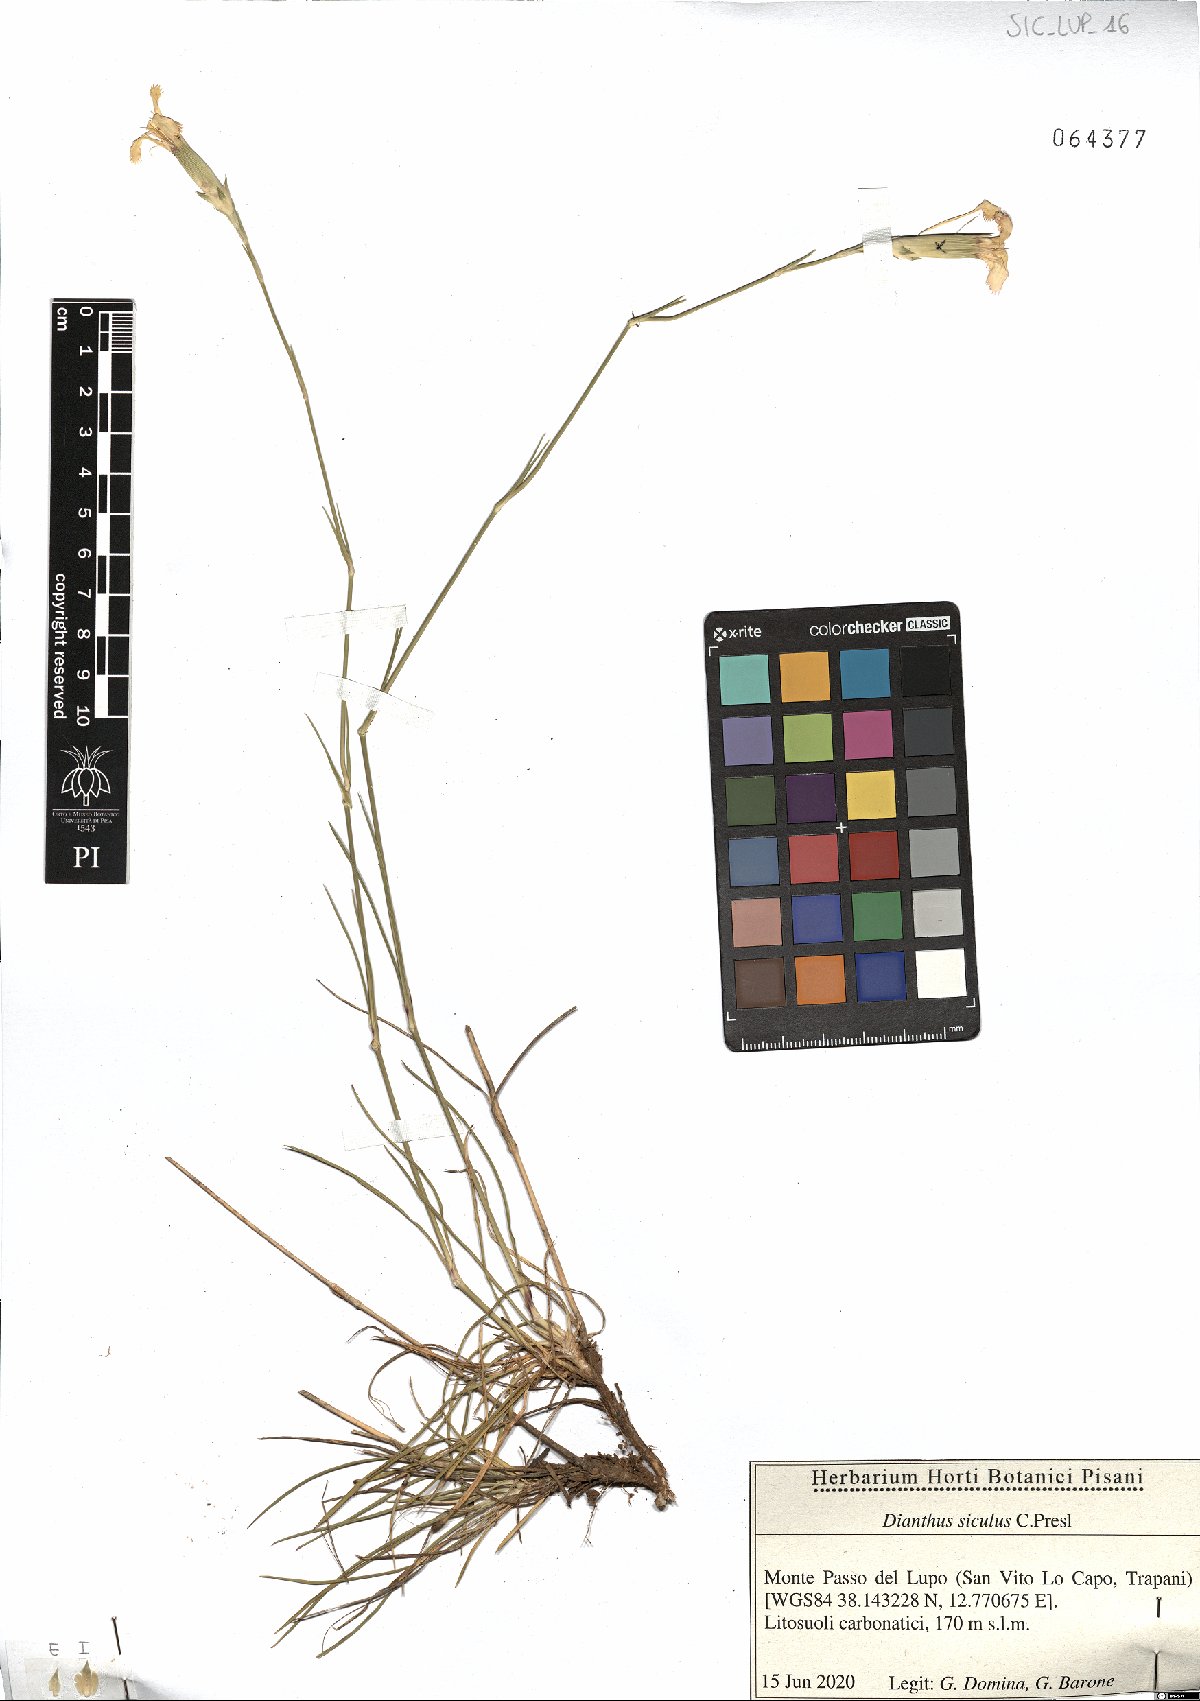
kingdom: Plantae
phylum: Tracheophyta
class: Magnoliopsida
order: Caryophyllales
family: Caryophyllaceae
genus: Dianthus
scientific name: Dianthus siculus
